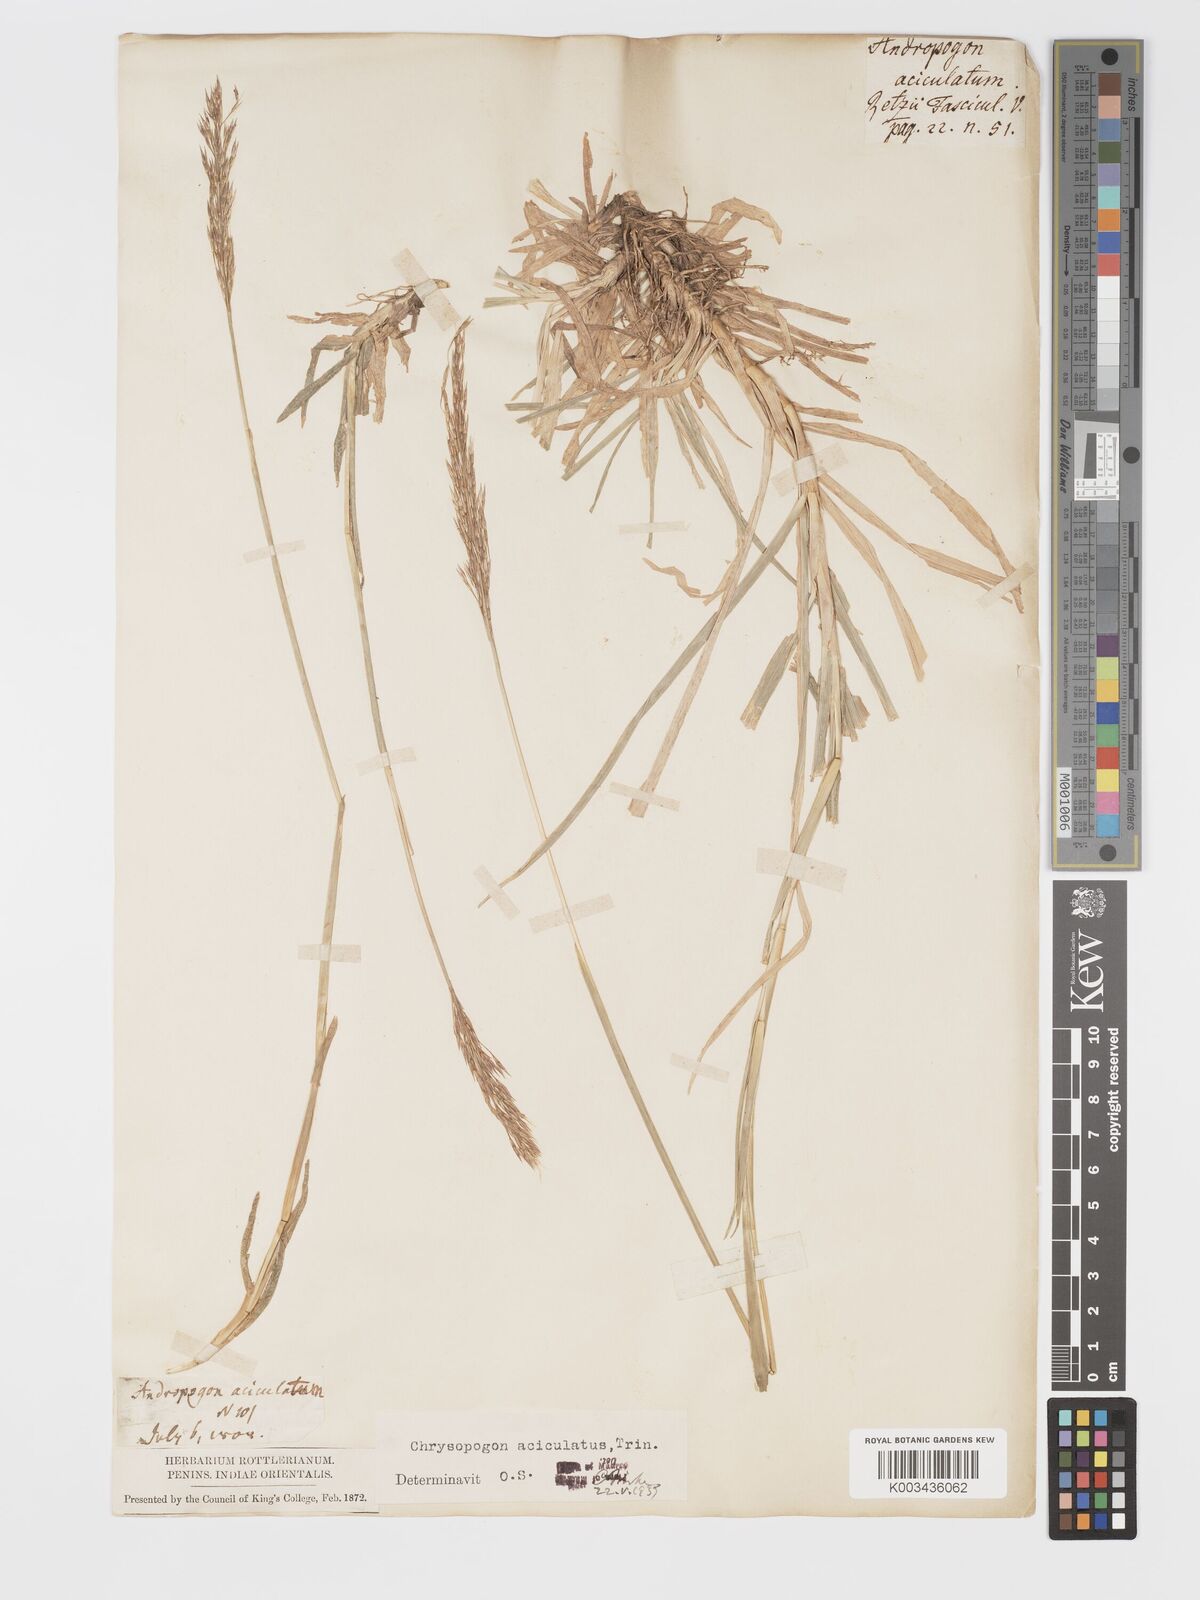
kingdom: Plantae
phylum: Tracheophyta
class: Liliopsida
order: Poales
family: Poaceae
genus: Chrysopogon
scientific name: Chrysopogon aciculatus
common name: Pilipiliula
